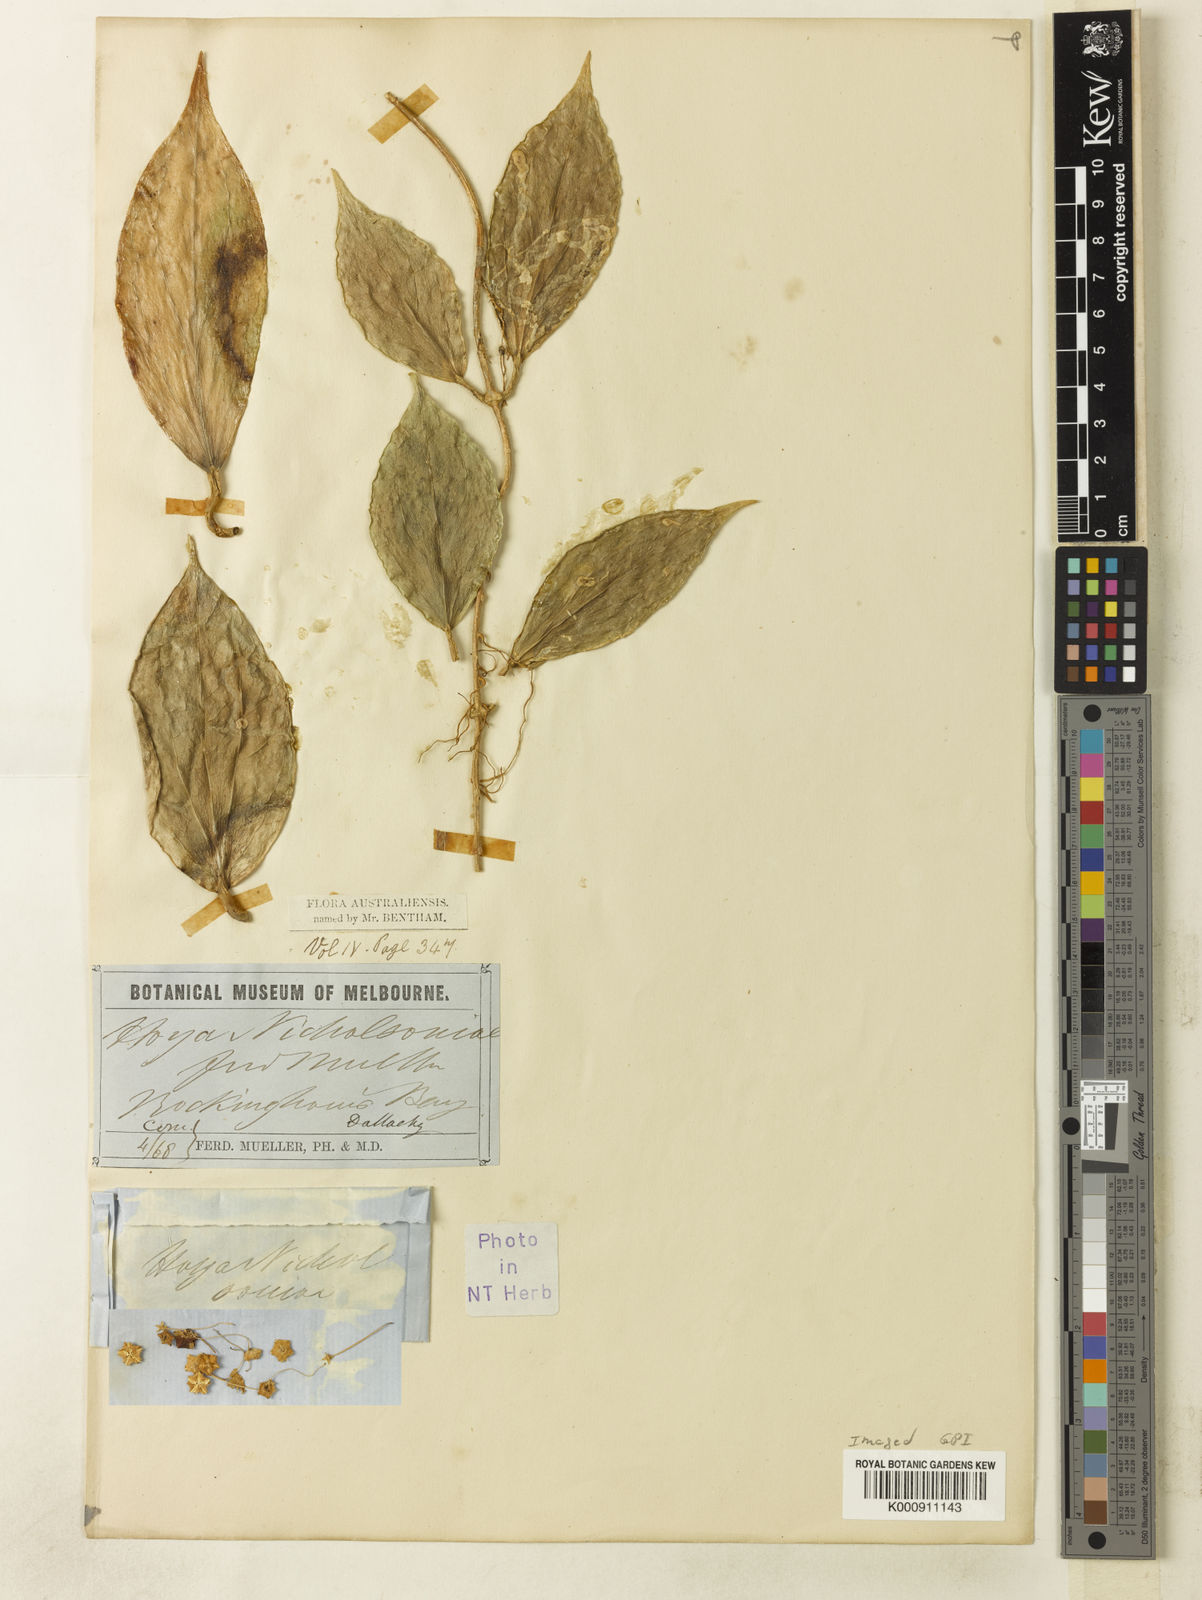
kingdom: Plantae
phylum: Tracheophyta
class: Magnoliopsida
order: Gentianales
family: Apocynaceae
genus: Hoya
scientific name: Hoya nicholsoniae
